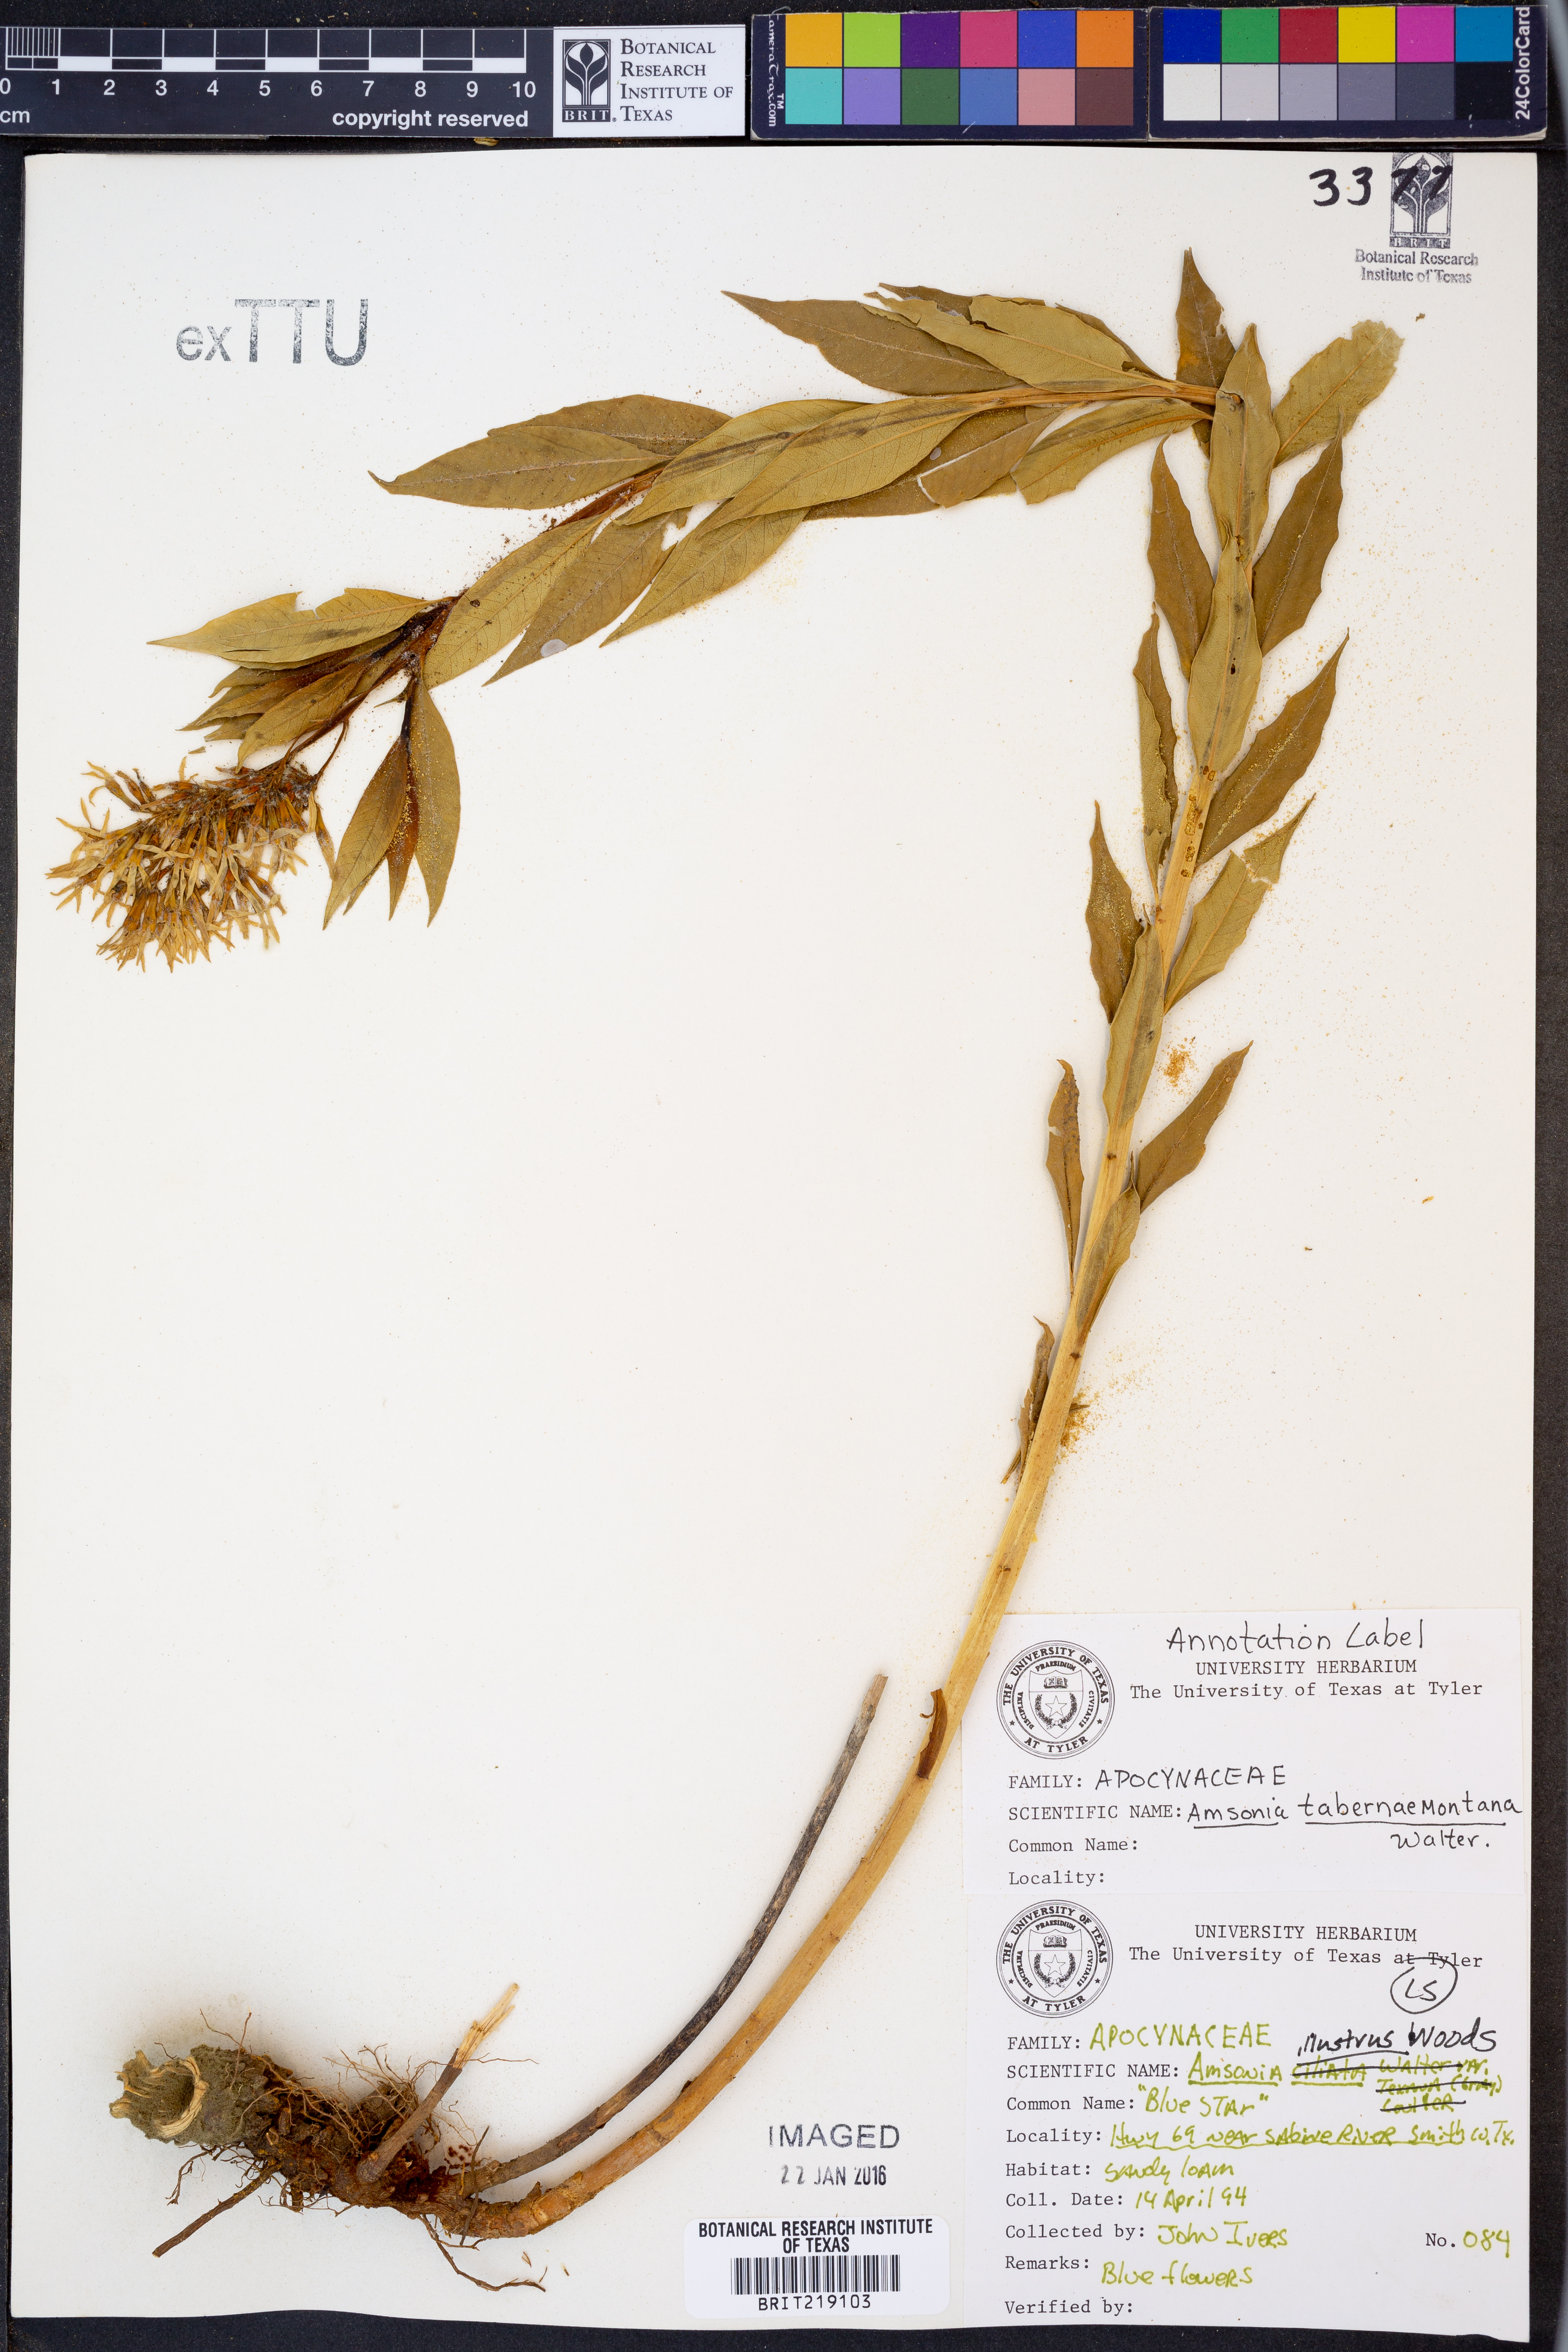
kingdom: Plantae
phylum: Tracheophyta
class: Magnoliopsida
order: Gentianales
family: Apocynaceae
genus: Amsonia
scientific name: Amsonia tabernaemontana
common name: Texas-star
